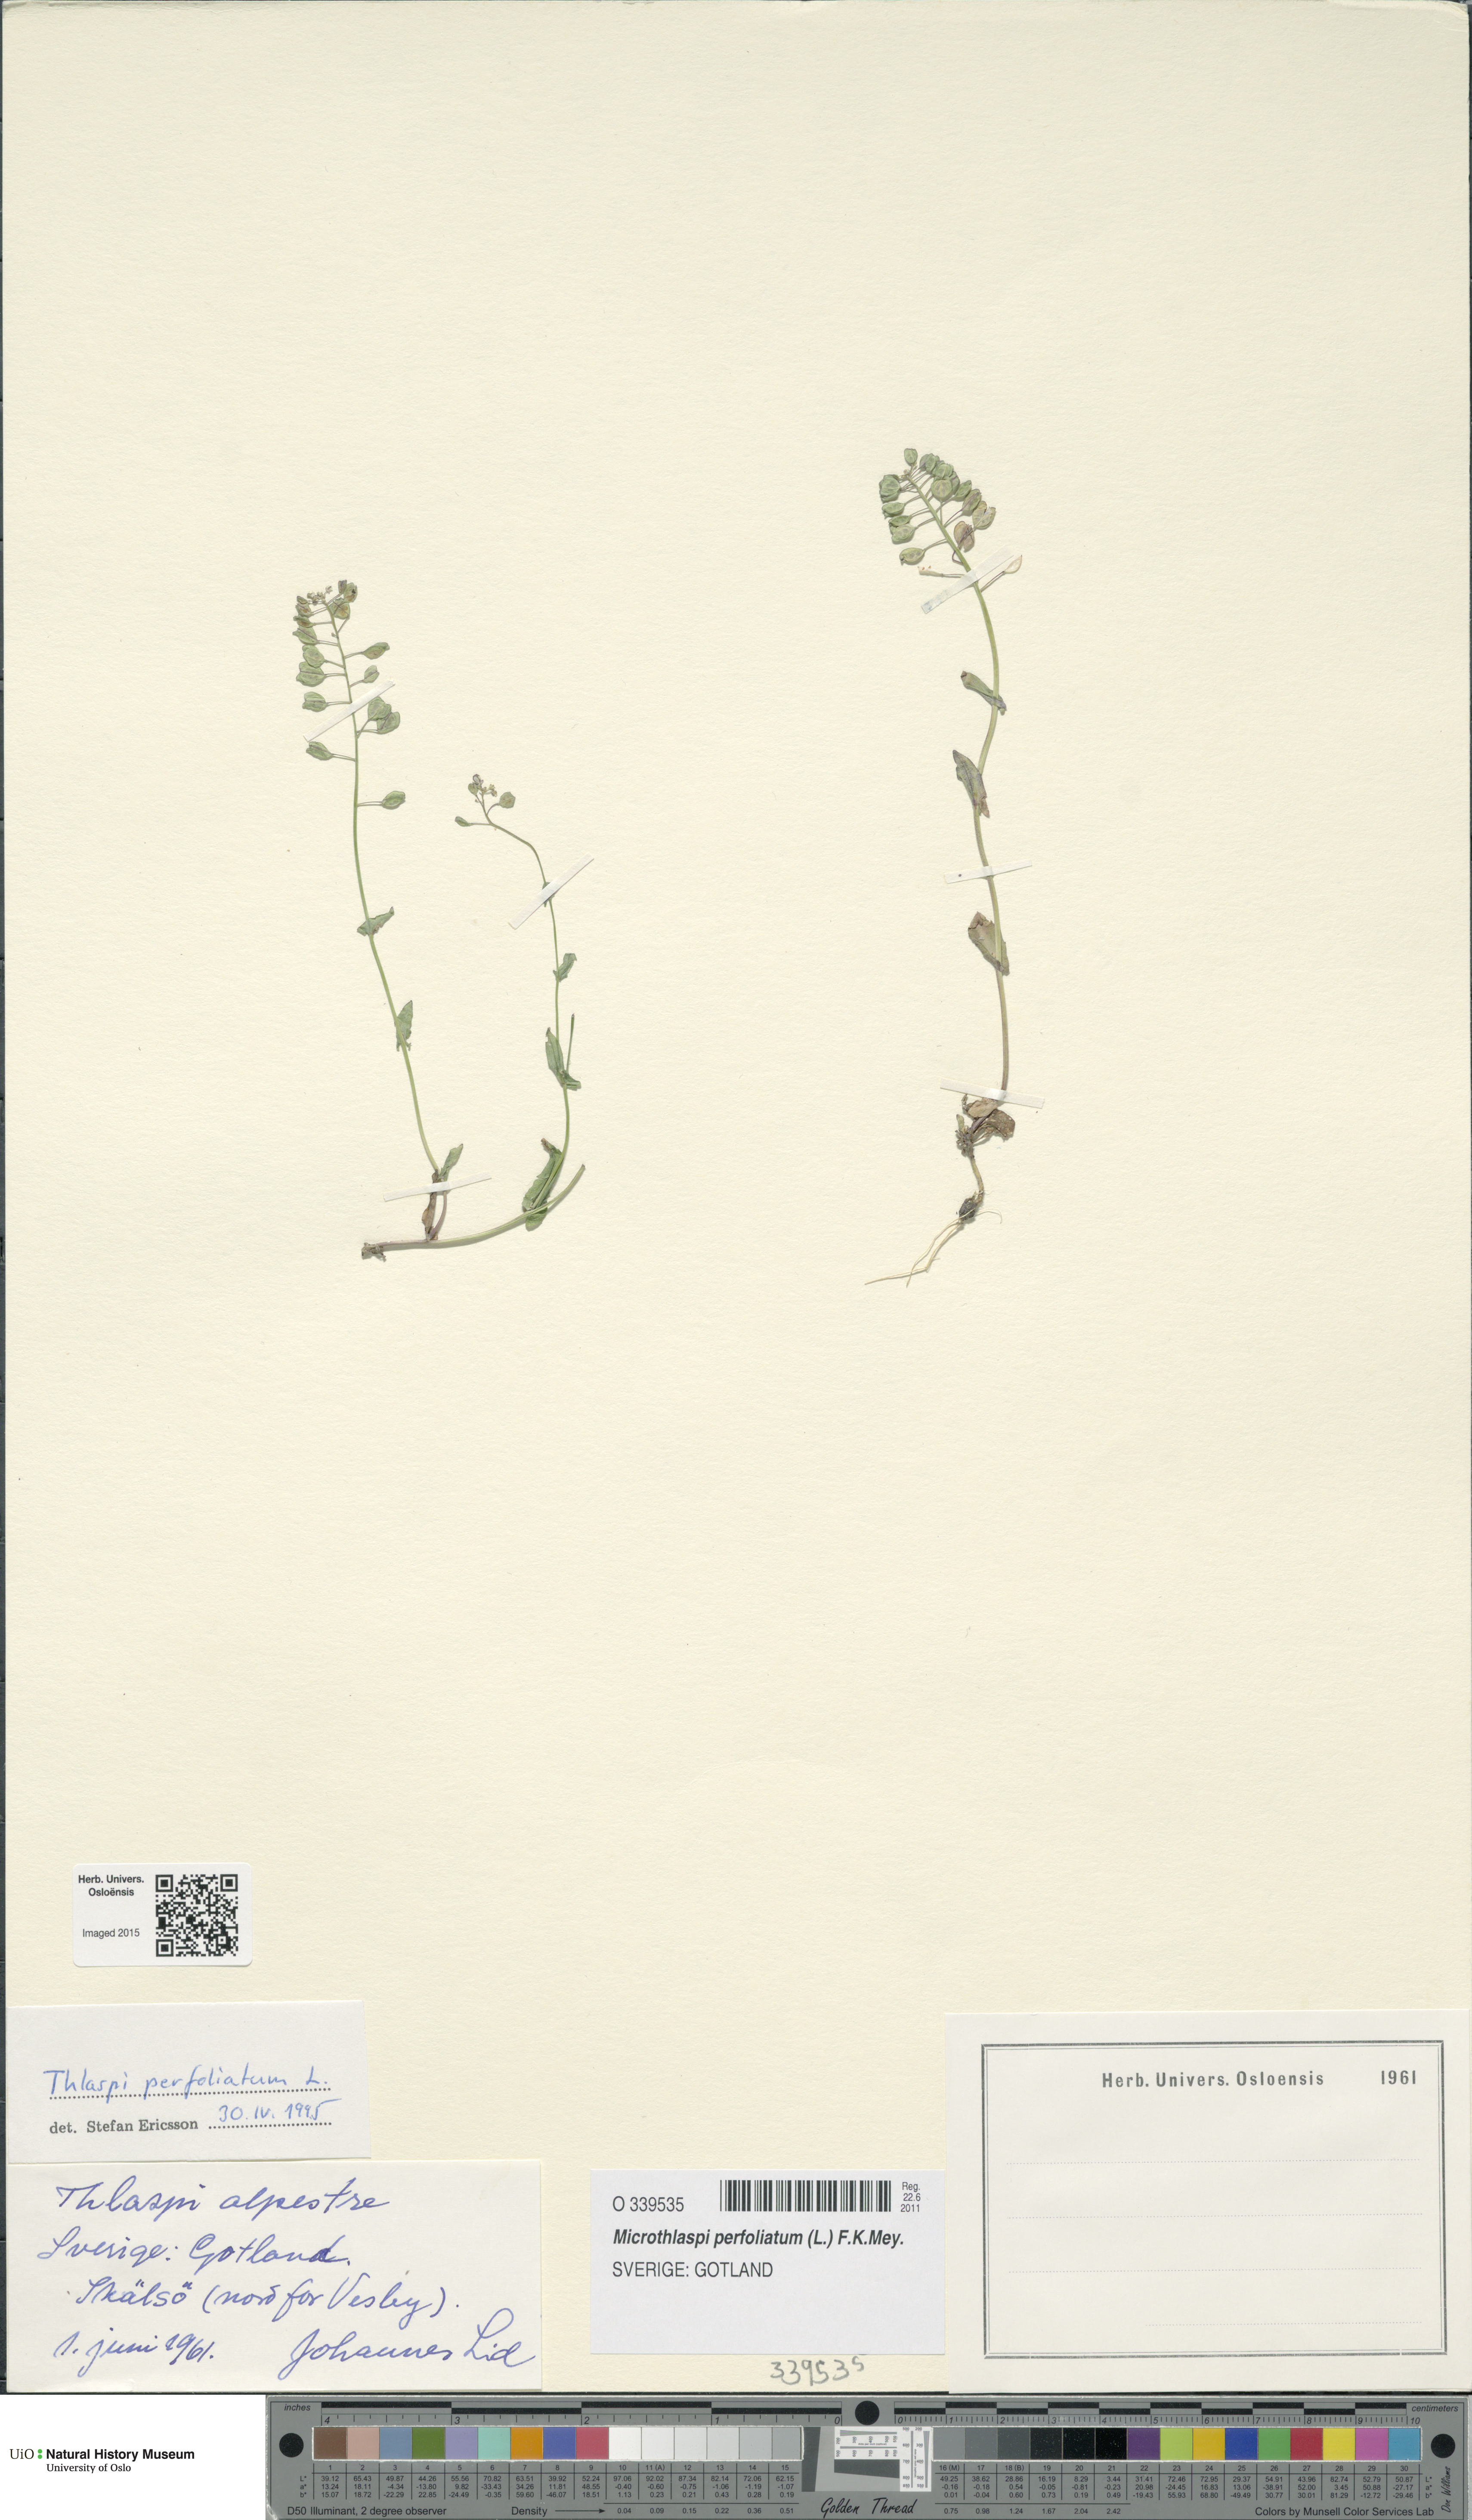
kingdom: Plantae
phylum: Tracheophyta
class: Magnoliopsida
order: Brassicales
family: Brassicaceae
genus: Noccaea
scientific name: Noccaea perfoliata
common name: Perfoliate pennycress
